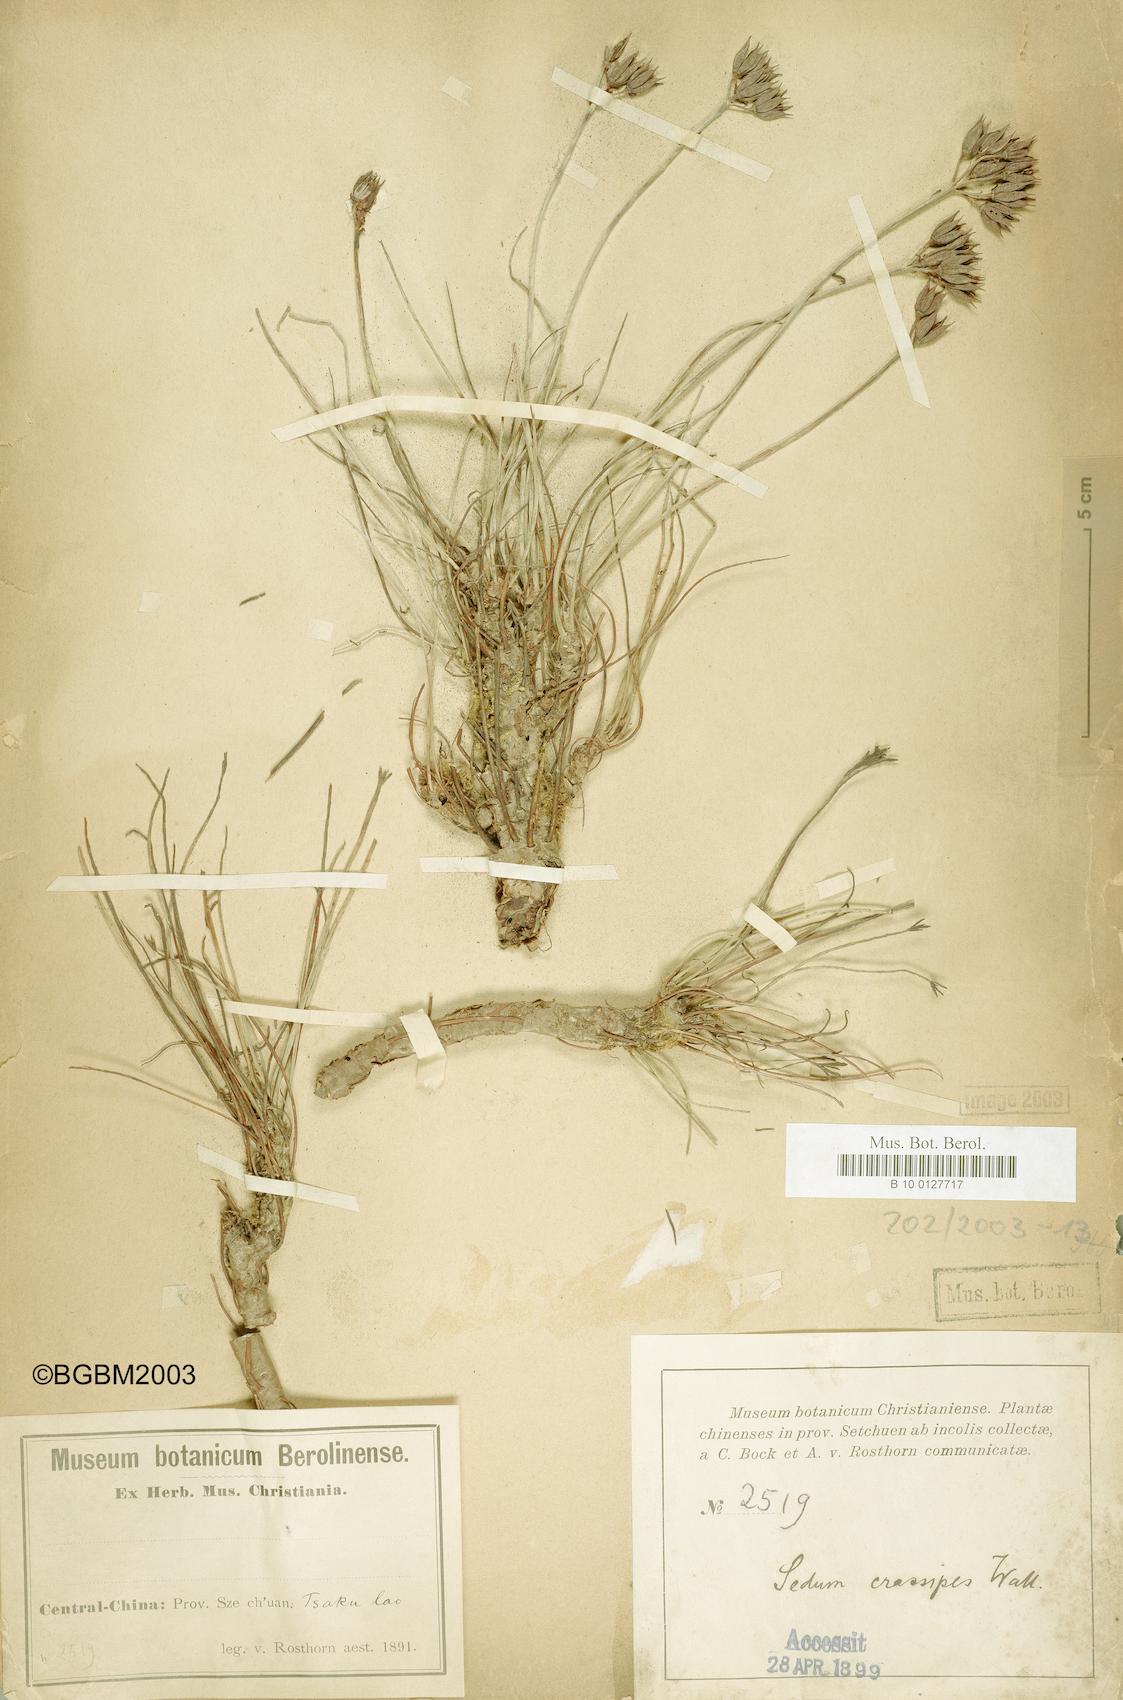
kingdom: Plantae
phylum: Tracheophyta
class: Magnoliopsida
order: Saxifragales
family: Crassulaceae
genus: Rhodiola
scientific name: Rhodiola wallichiana
